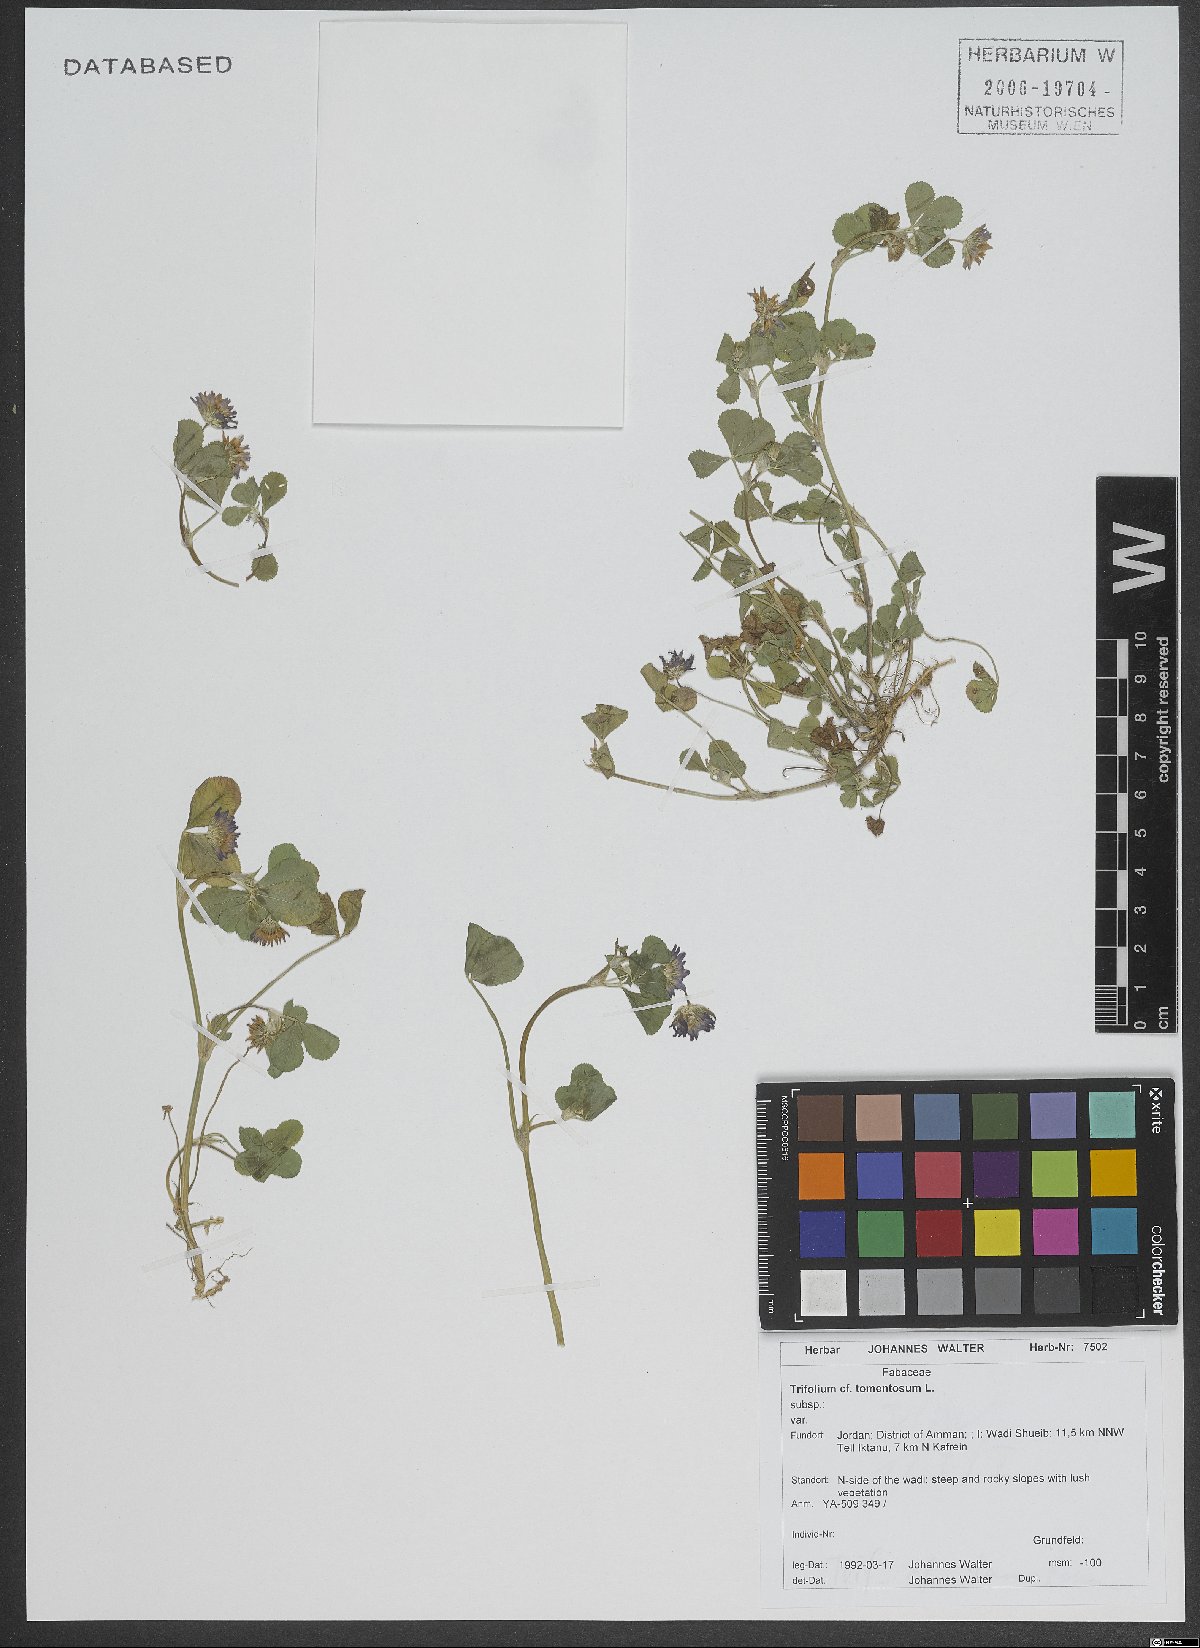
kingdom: Plantae
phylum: Tracheophyta
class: Magnoliopsida
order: Fabales
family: Fabaceae
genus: Trifolium
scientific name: Trifolium tomentosum
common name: Woolly clover
